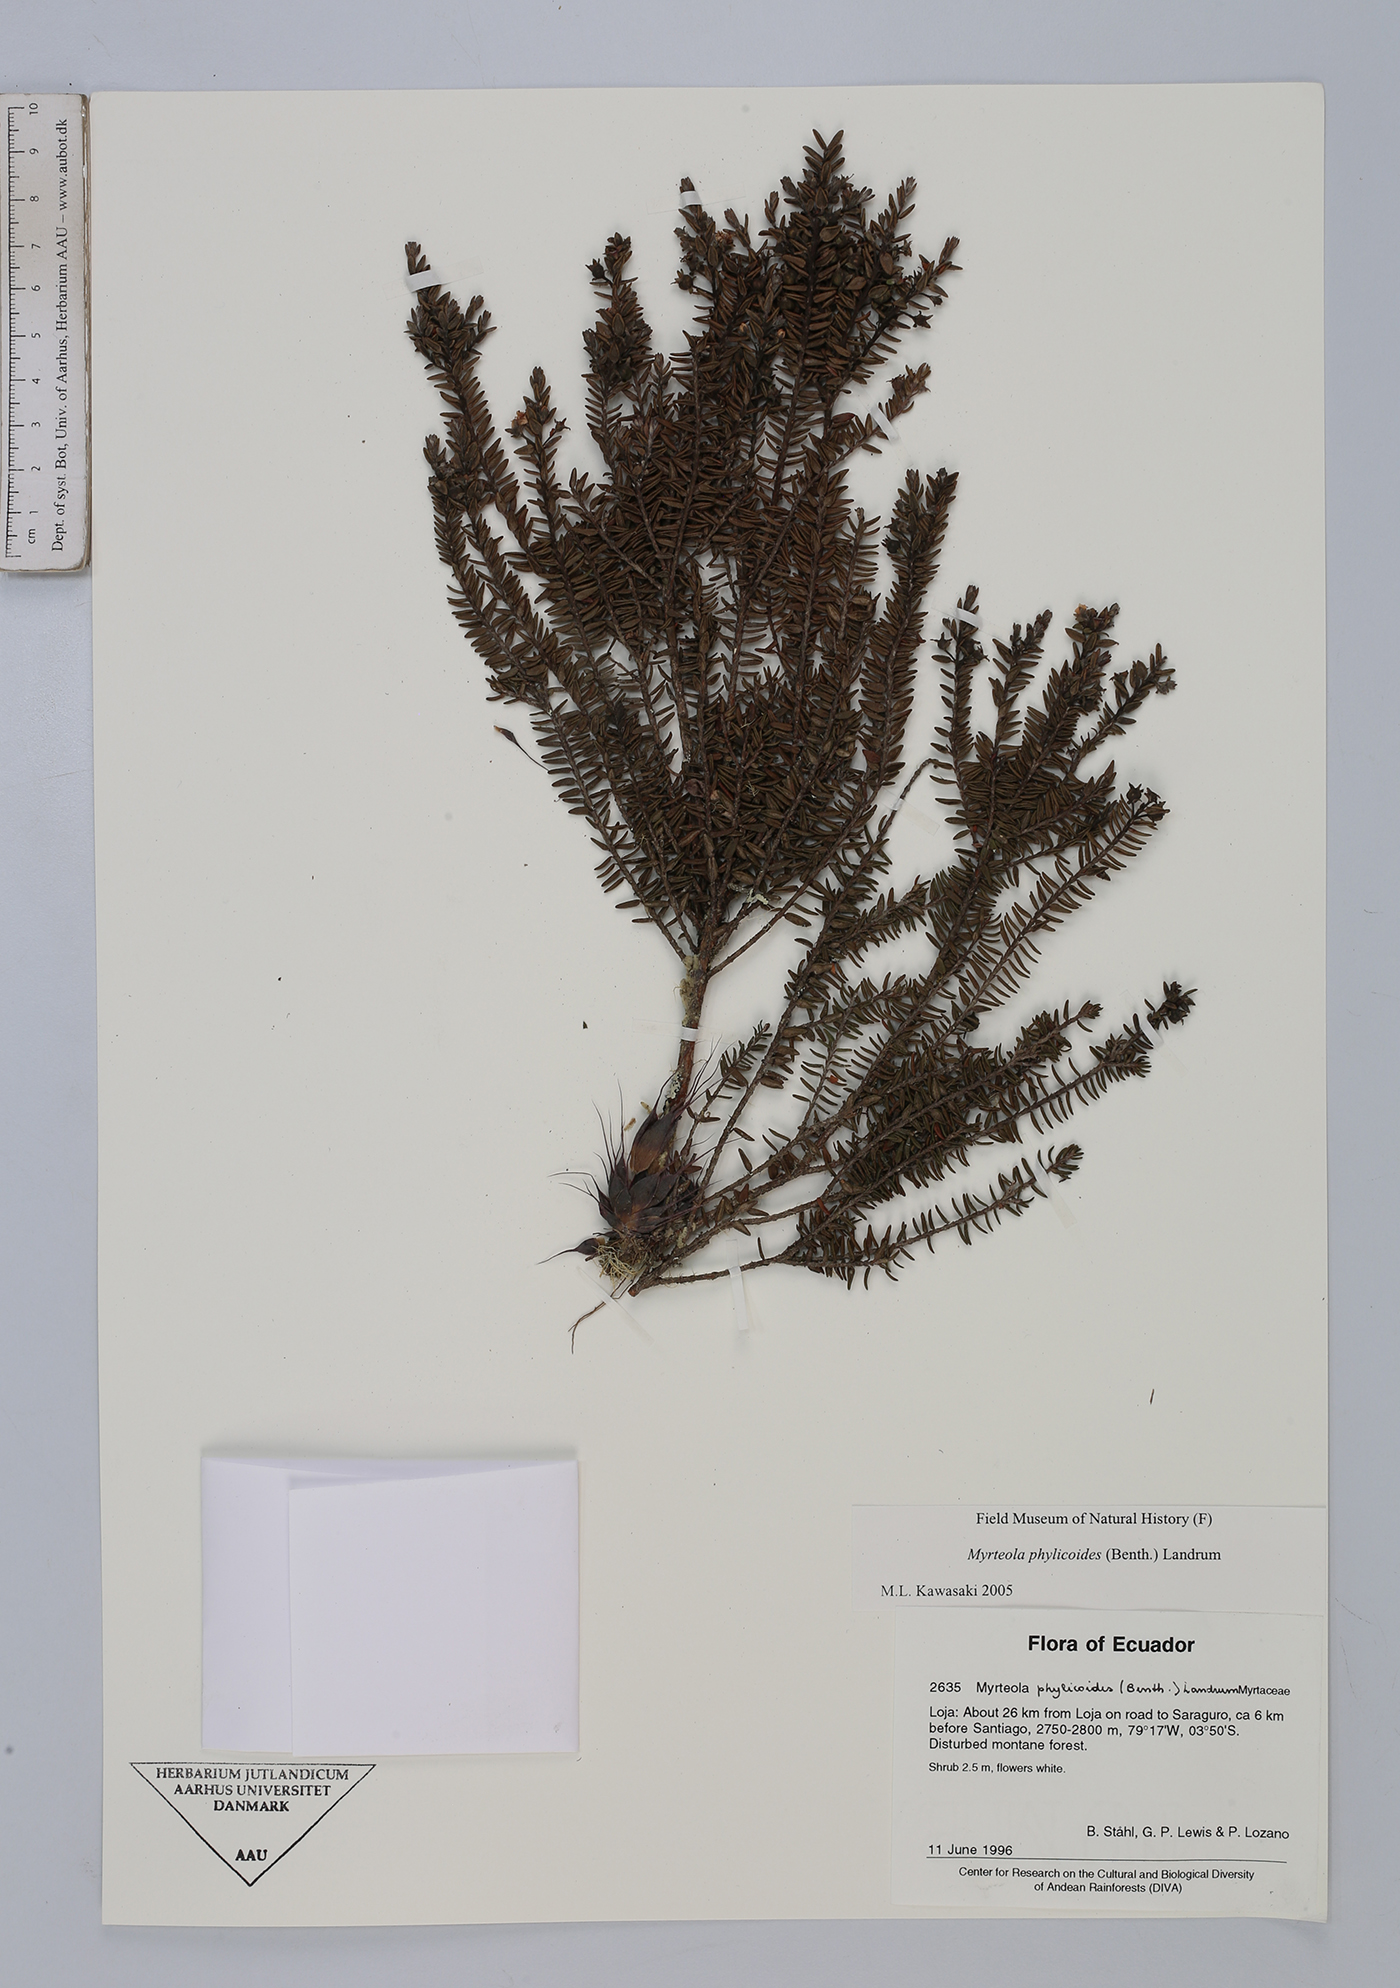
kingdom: Plantae
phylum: Tracheophyta
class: Magnoliopsida
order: Myrtales
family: Myrtaceae
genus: Myrteola
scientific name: Myrteola phylicoides
